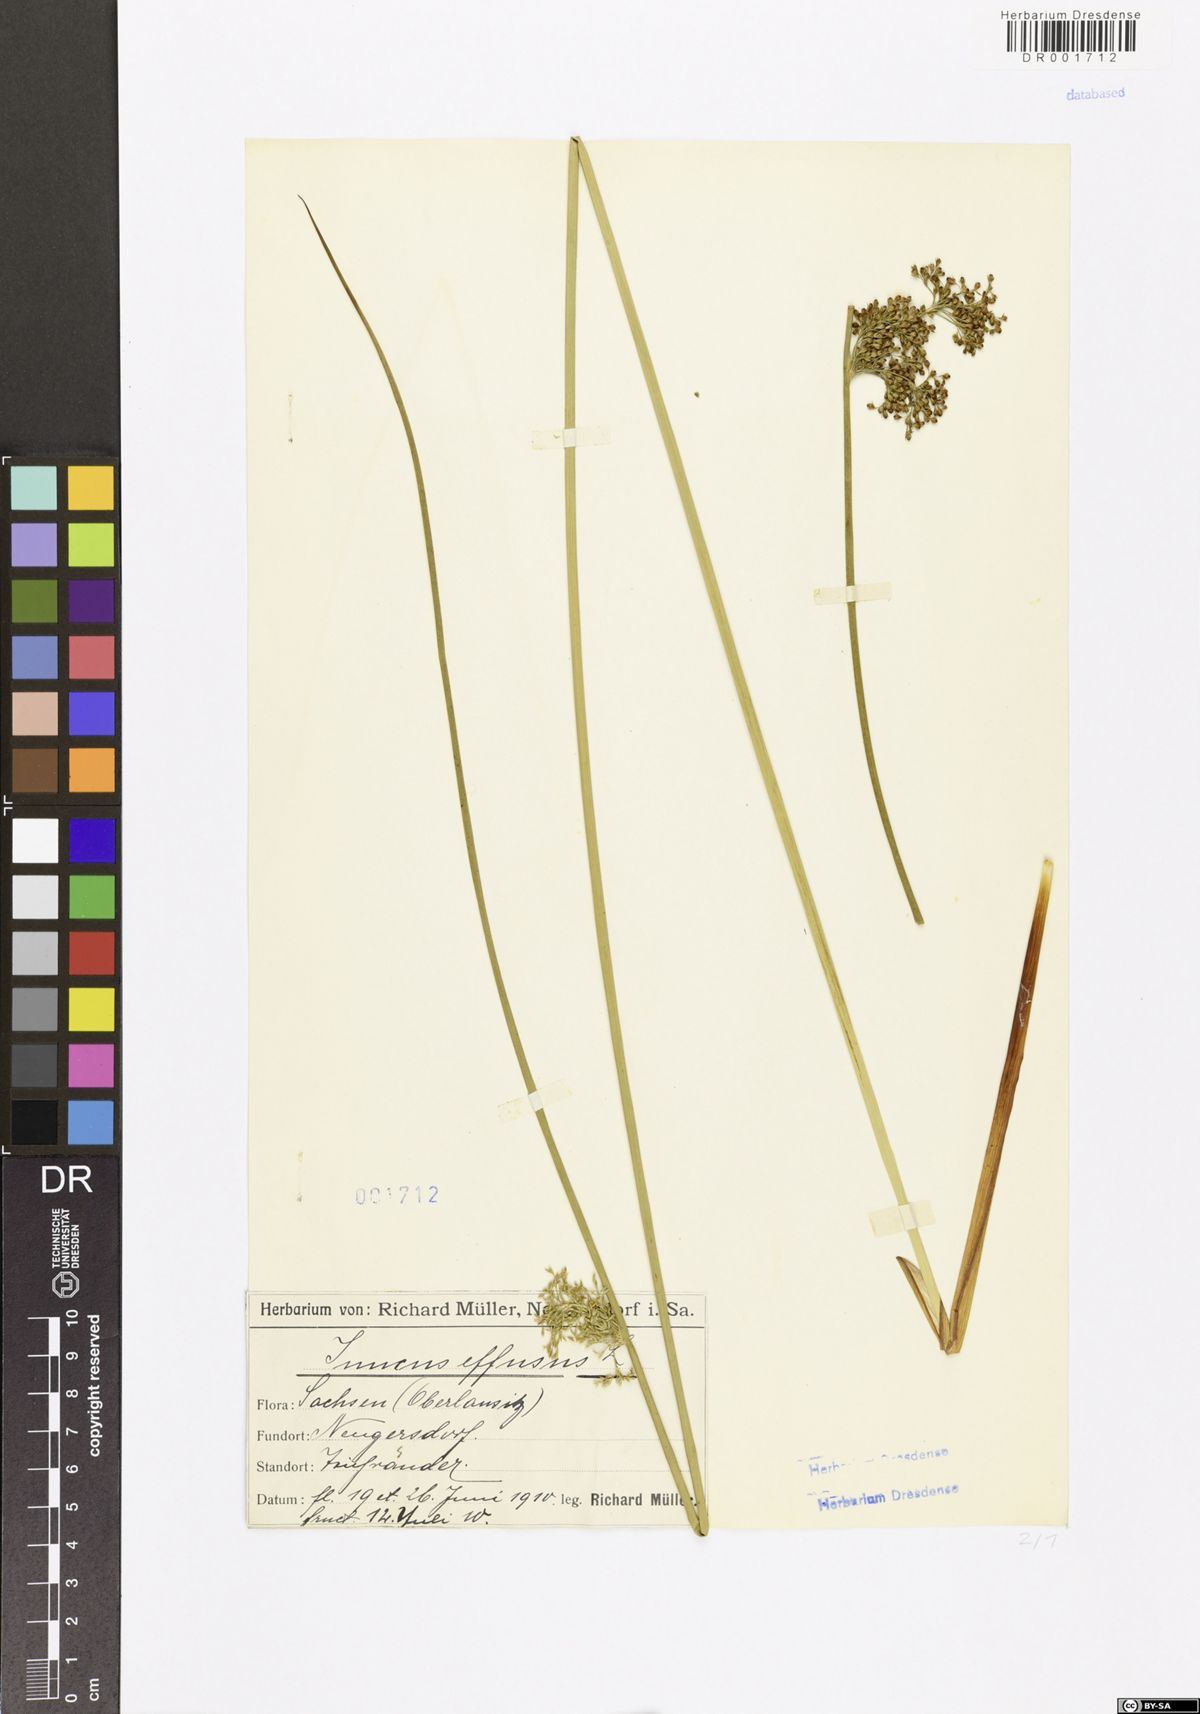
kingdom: Plantae
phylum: Tracheophyta
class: Liliopsida
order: Poales
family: Juncaceae
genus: Juncus
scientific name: Juncus effusus
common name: Soft rush
